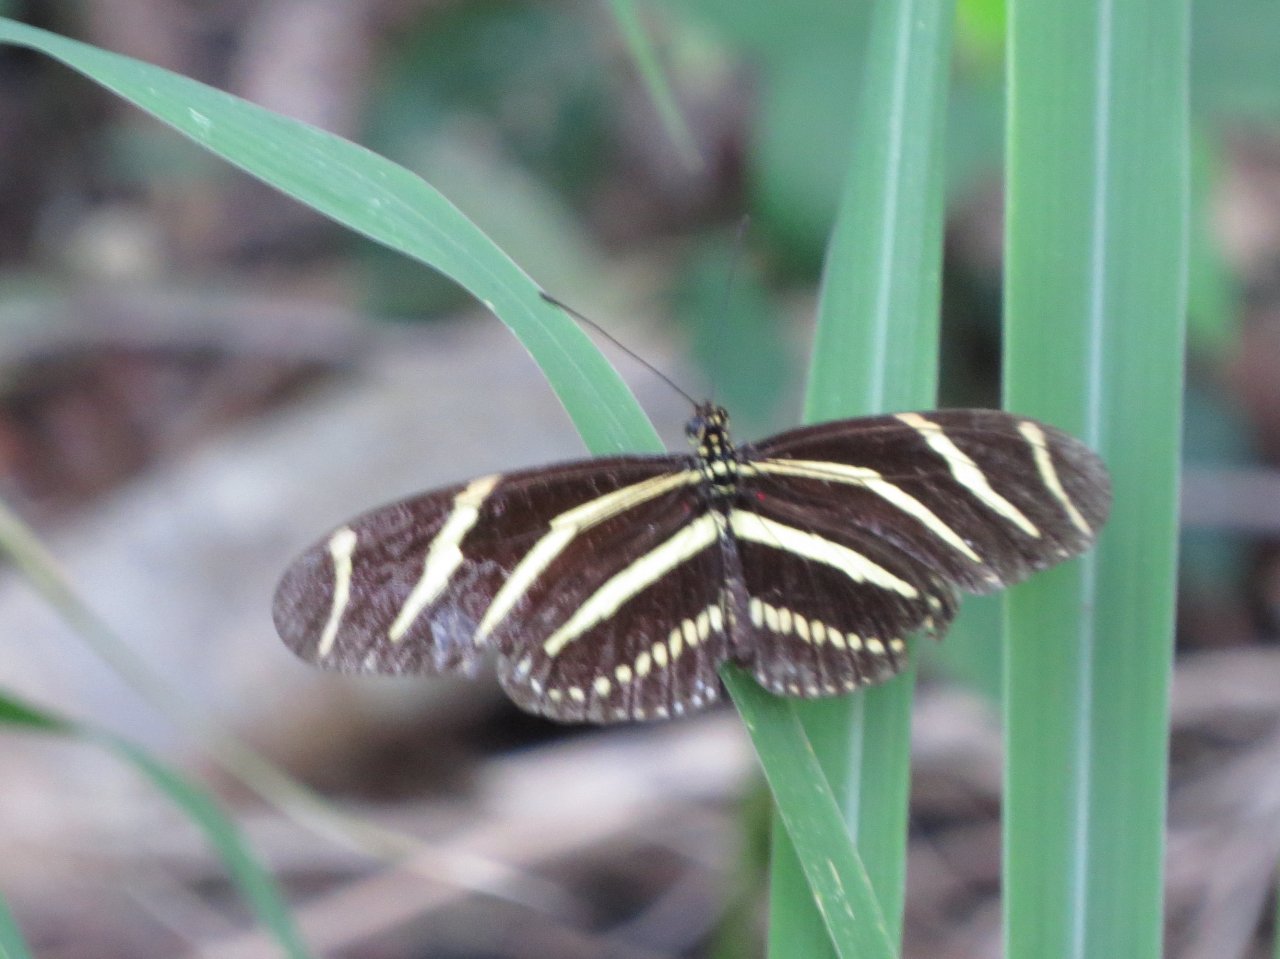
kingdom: Animalia
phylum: Arthropoda
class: Insecta
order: Lepidoptera
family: Nymphalidae
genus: Heliconius
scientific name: Heliconius charithonia
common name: Zebra Longwing
